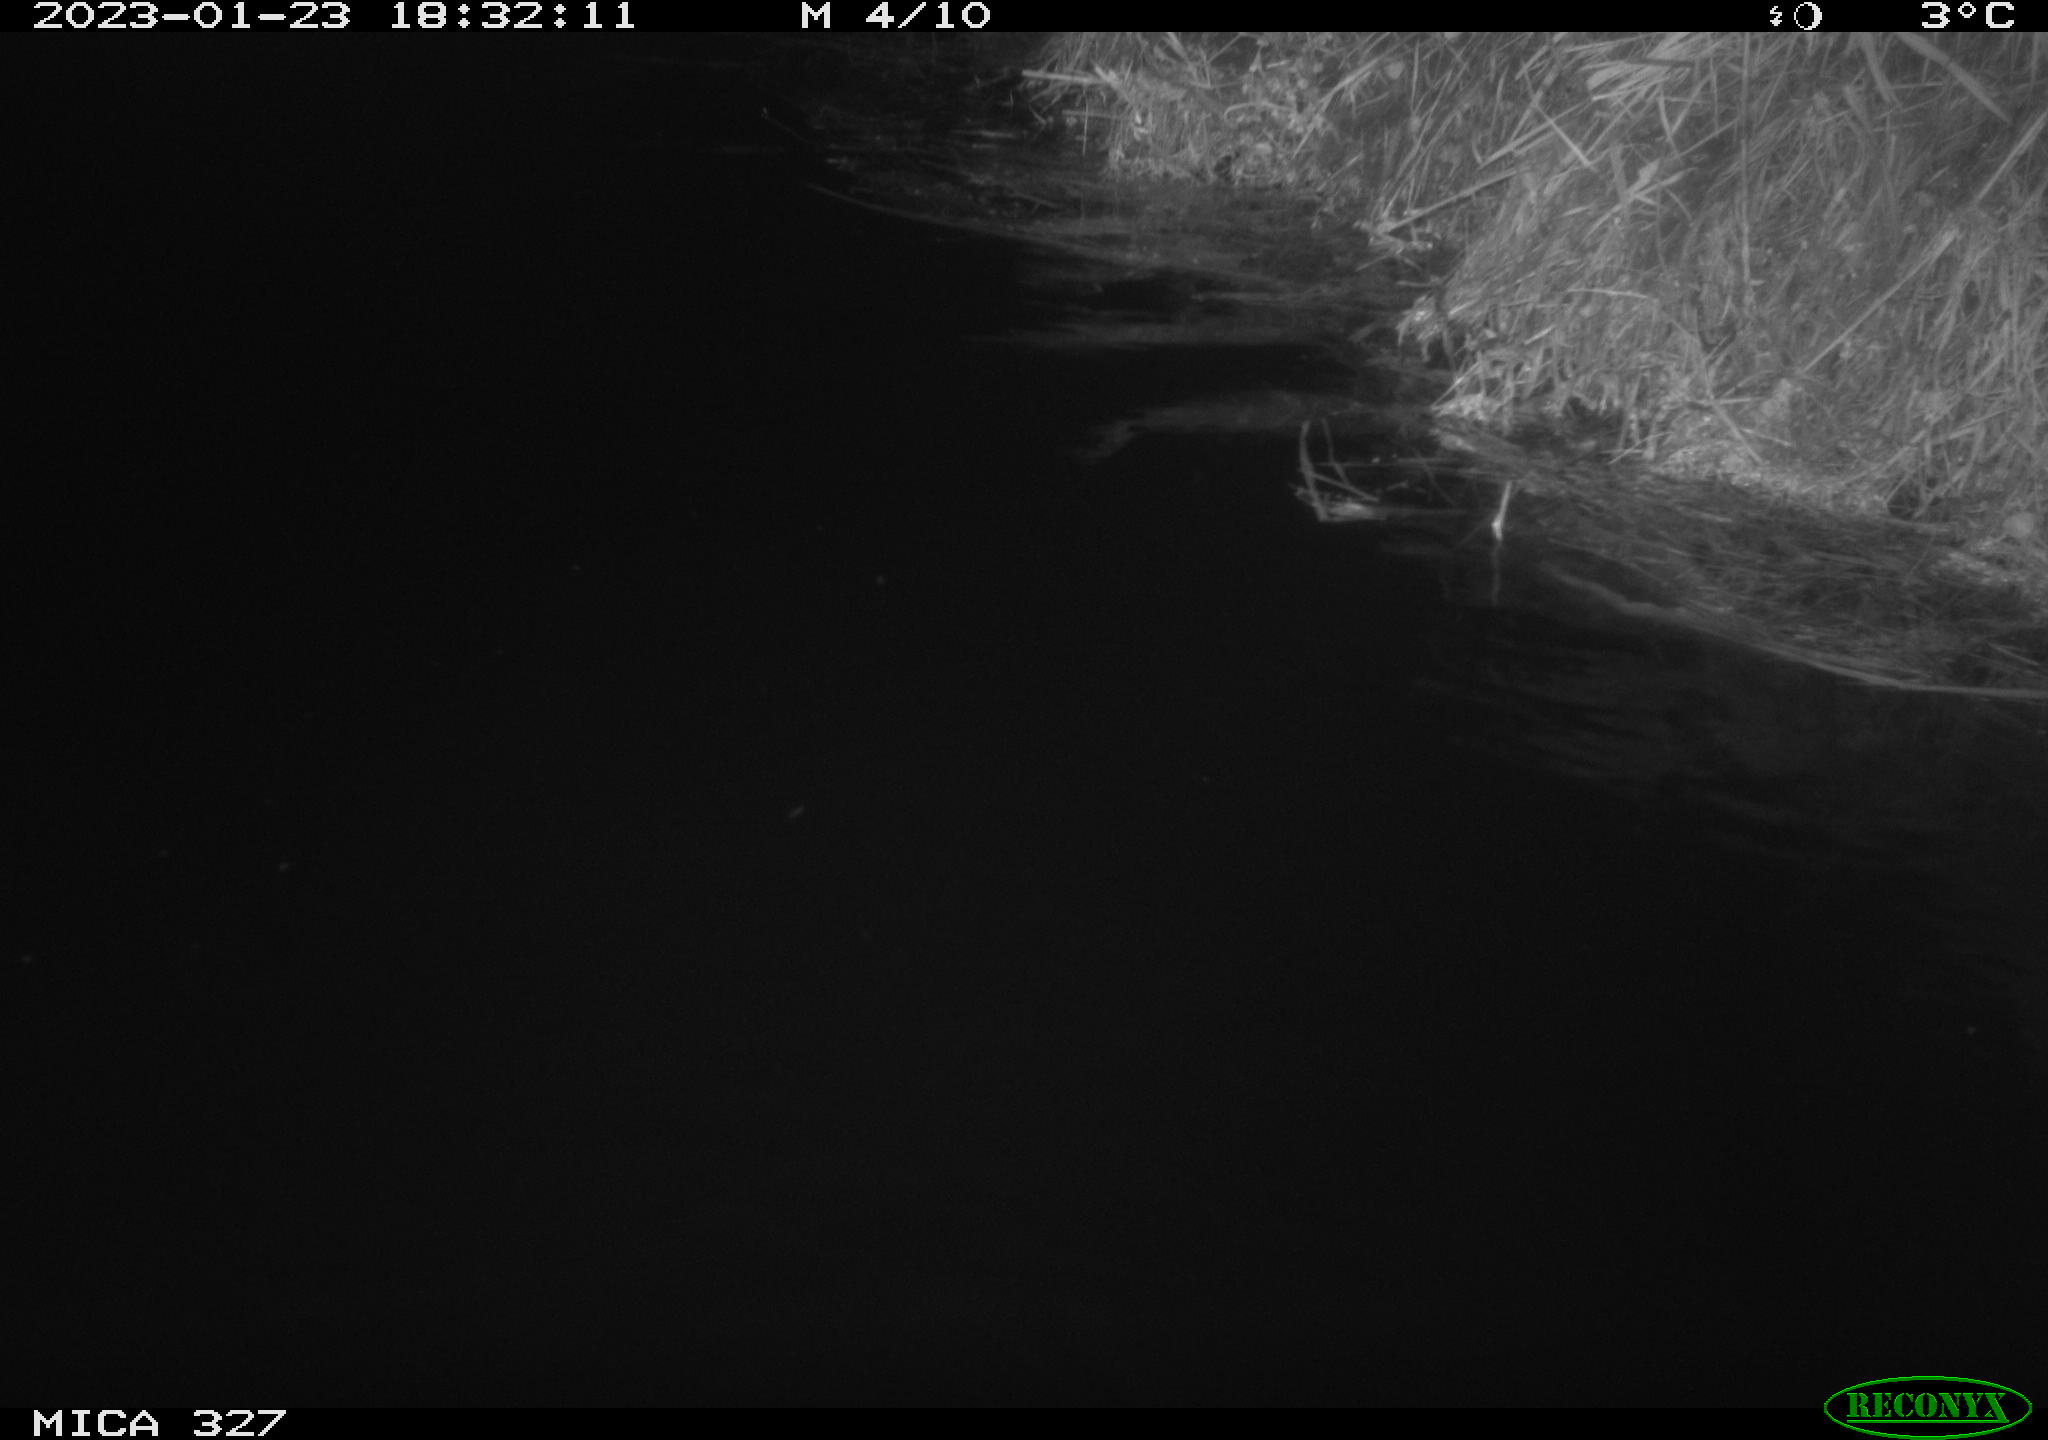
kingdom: Animalia
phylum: Chordata
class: Mammalia
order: Rodentia
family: Cricetidae
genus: Ondatra
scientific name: Ondatra zibethicus
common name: Muskrat
